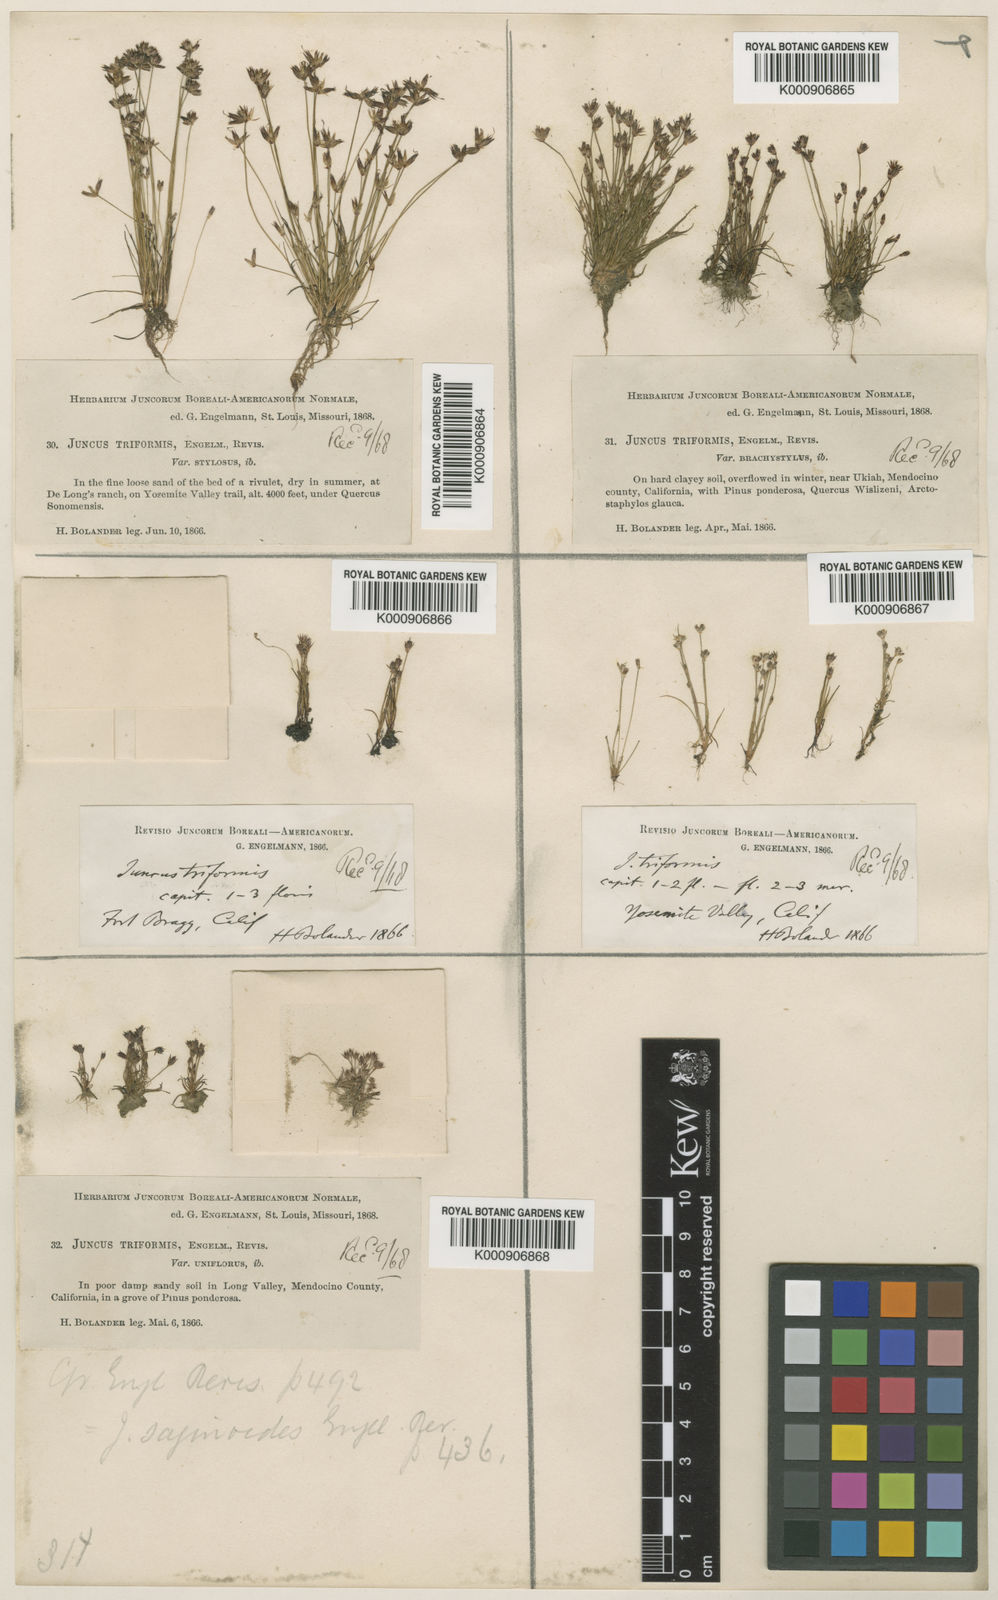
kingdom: Plantae
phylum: Tracheophyta
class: Liliopsida
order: Poales
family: Juncaceae
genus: Juncus
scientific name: Juncus triformis
